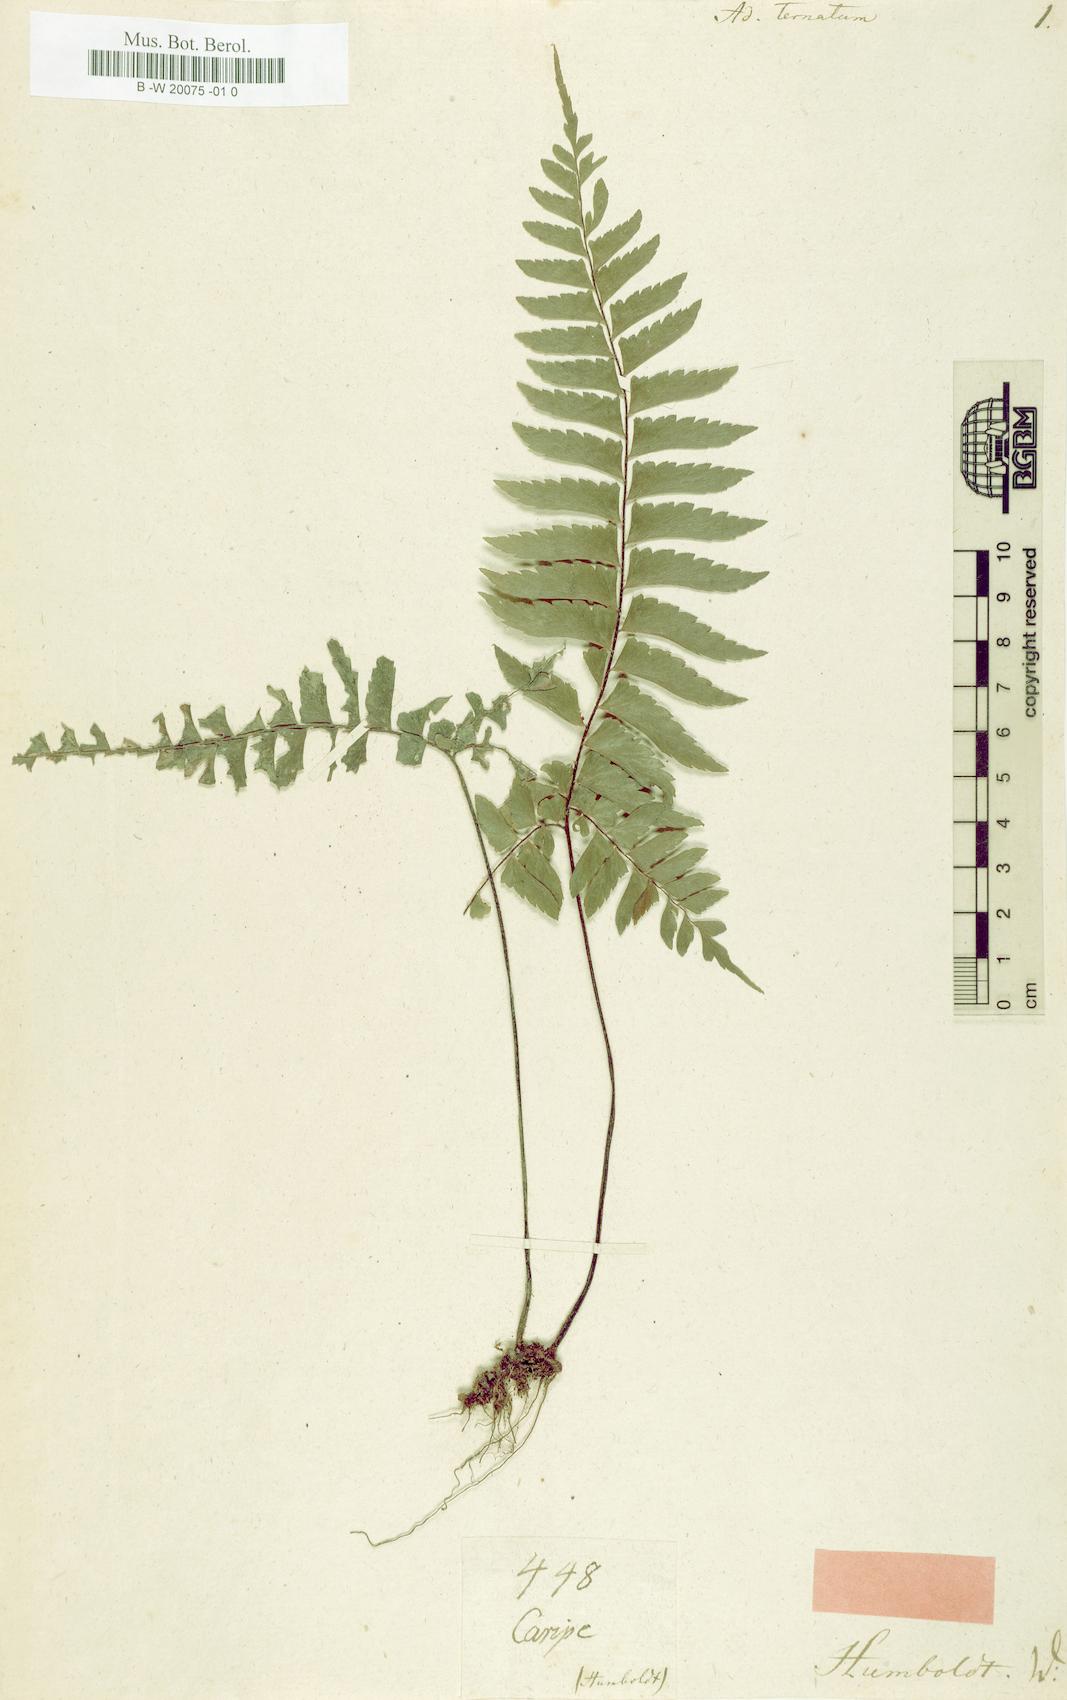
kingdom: Plantae
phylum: Tracheophyta
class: Polypodiopsida
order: Polypodiales
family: Pteridaceae
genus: Adiantum
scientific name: Adiantum tetraphyllum
